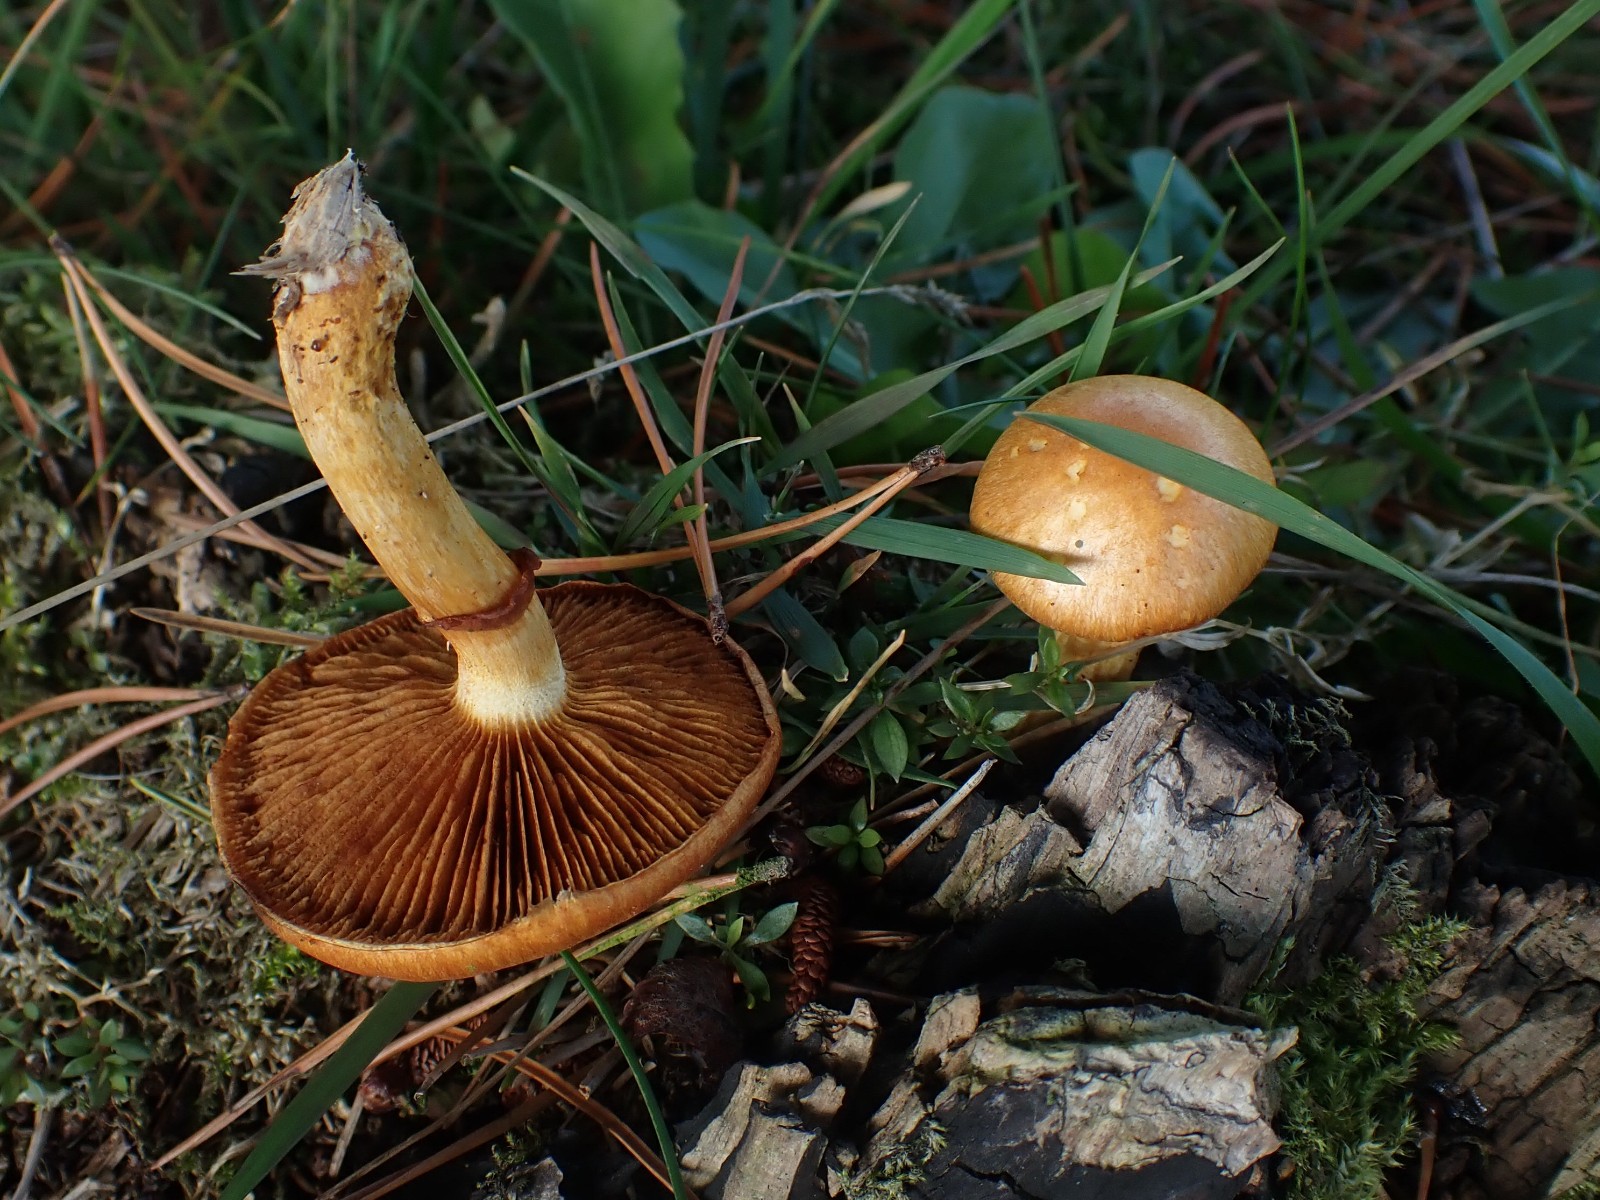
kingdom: Fungi
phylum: Basidiomycota
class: Agaricomycetes
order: Agaricales
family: Hymenogastraceae
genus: Gymnopilus
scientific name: Gymnopilus spectabilis
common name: fibret flammehat
